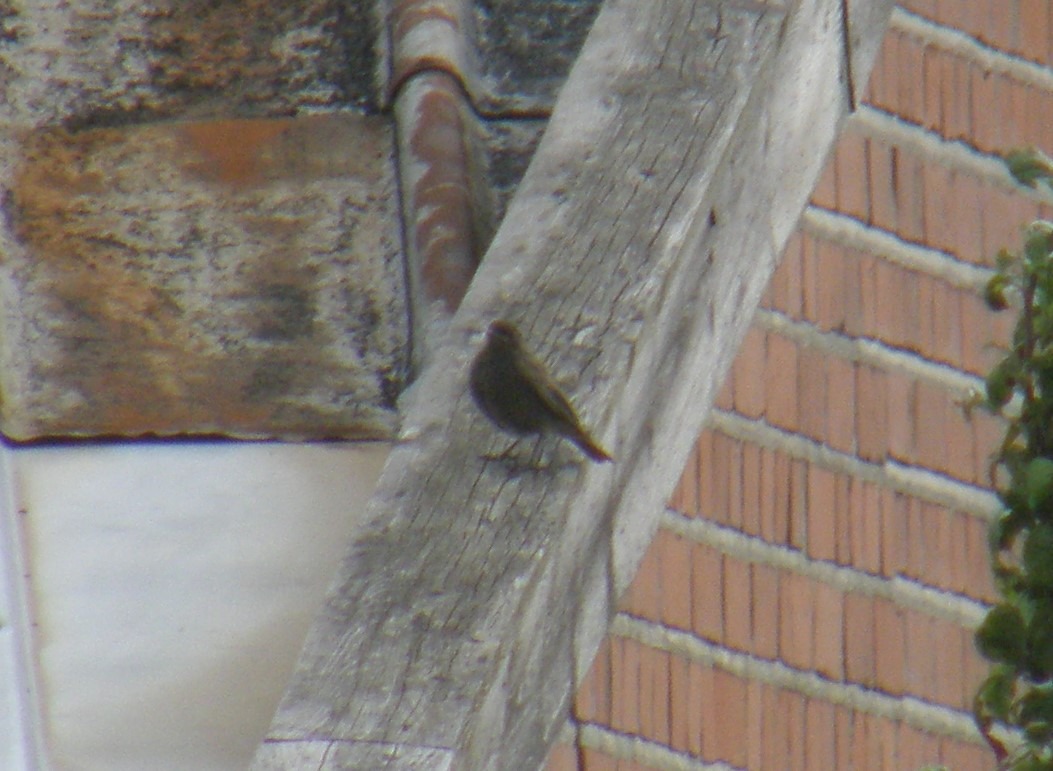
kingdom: Animalia
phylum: Chordata
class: Aves
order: Passeriformes
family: Muscicapidae
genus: Phoenicurus
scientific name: Phoenicurus ochruros
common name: Husrødstjert
